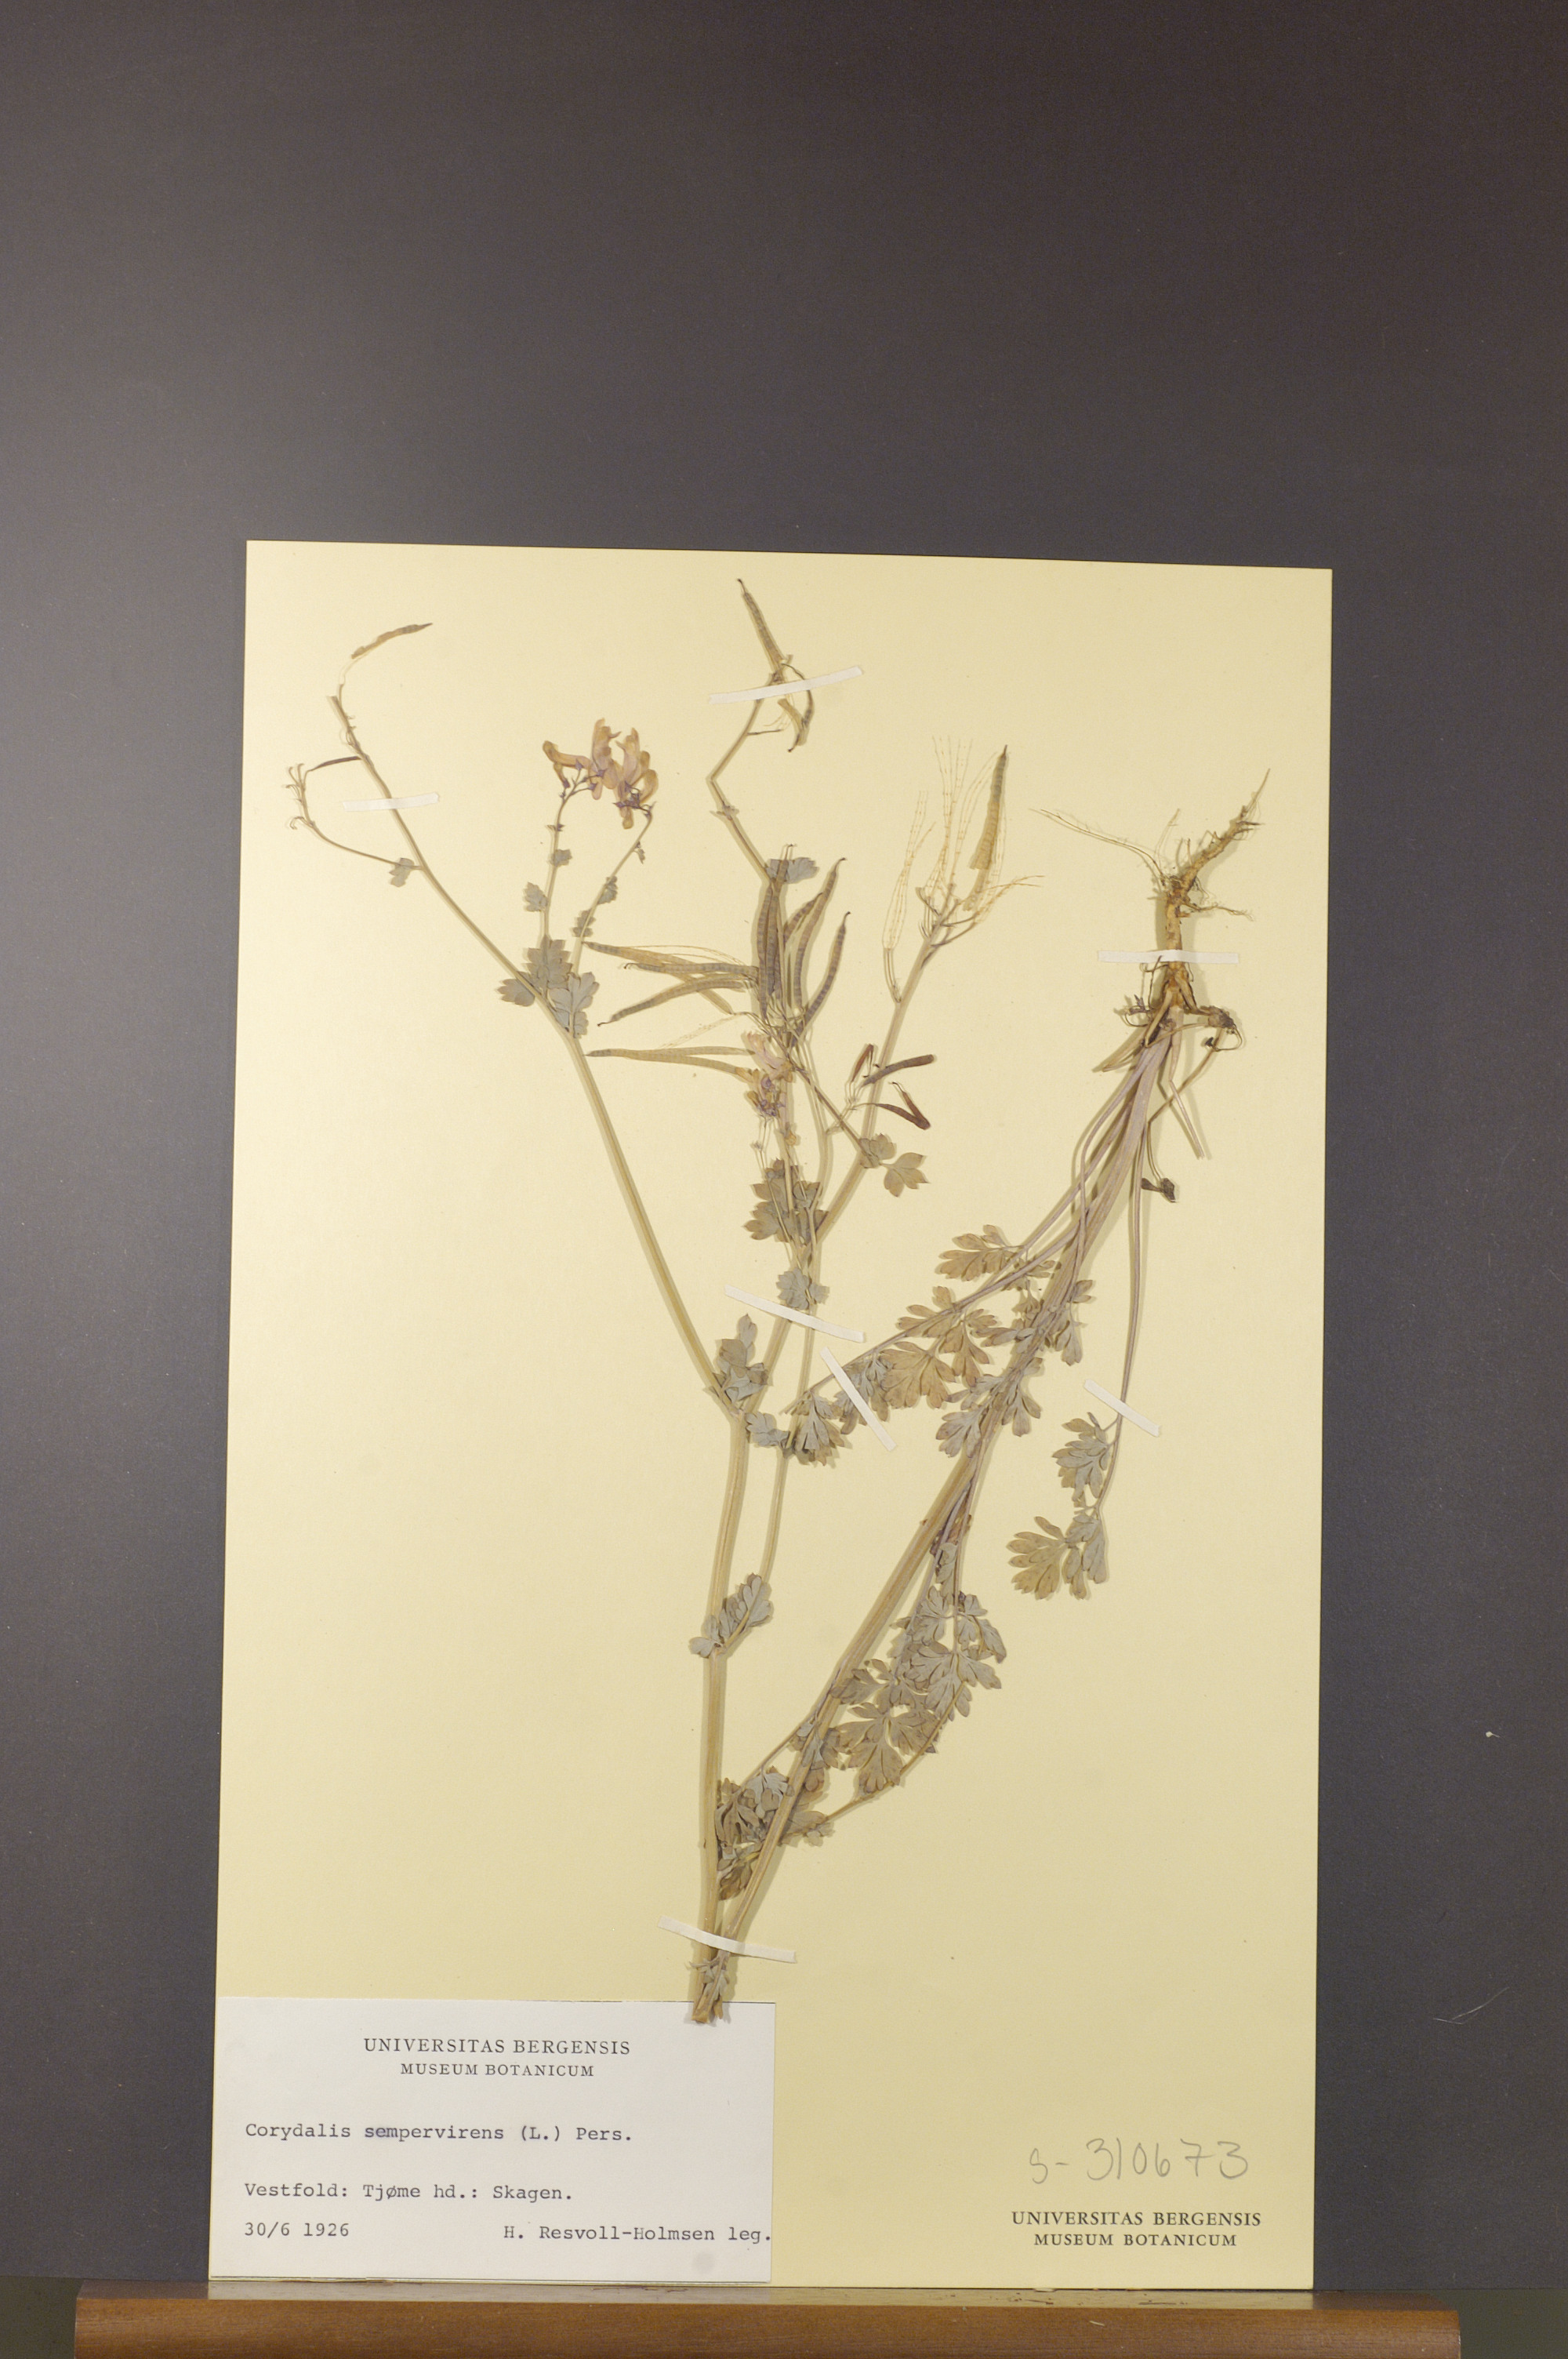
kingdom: Plantae
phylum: Tracheophyta
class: Magnoliopsida
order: Ranunculales
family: Papaveraceae
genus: Capnoides
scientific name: Capnoides sempervirens
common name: Rock harlequin
